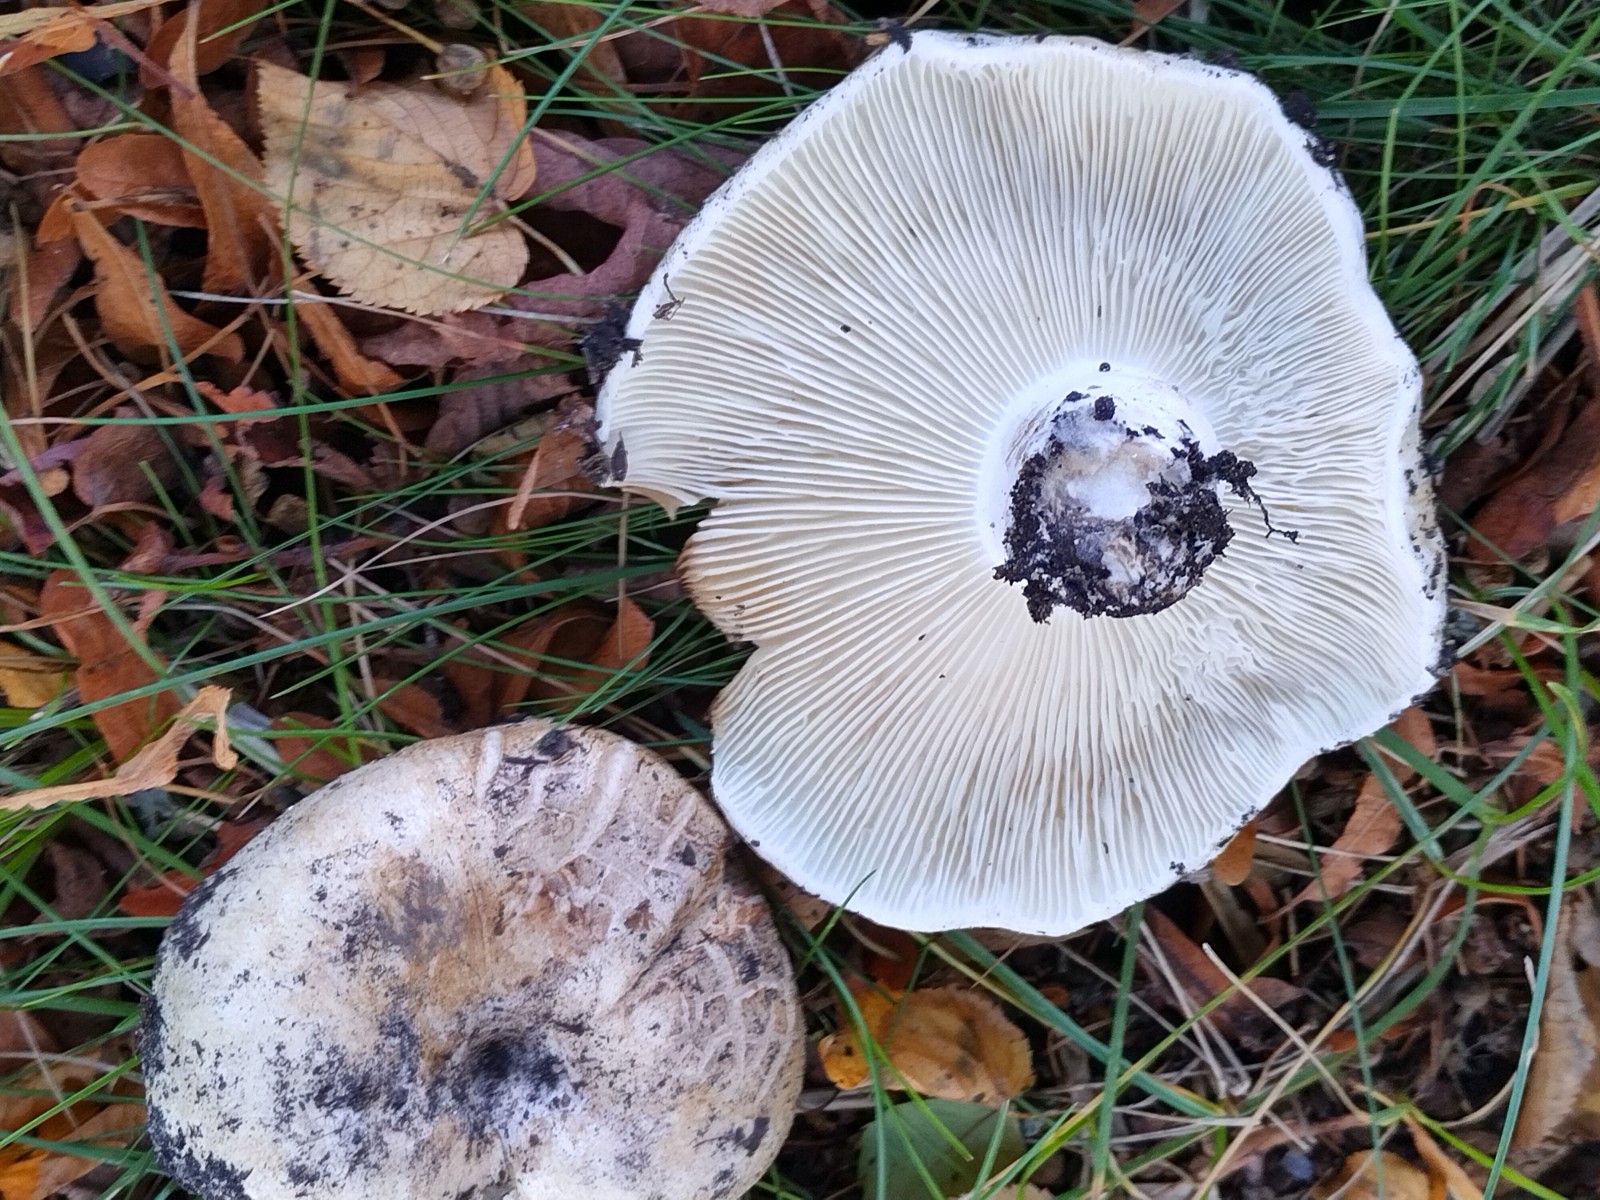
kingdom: Fungi
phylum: Basidiomycota
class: Agaricomycetes
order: Russulales
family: Russulaceae
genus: Russula
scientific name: Russula delica
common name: almindelig tragt-skørhat
